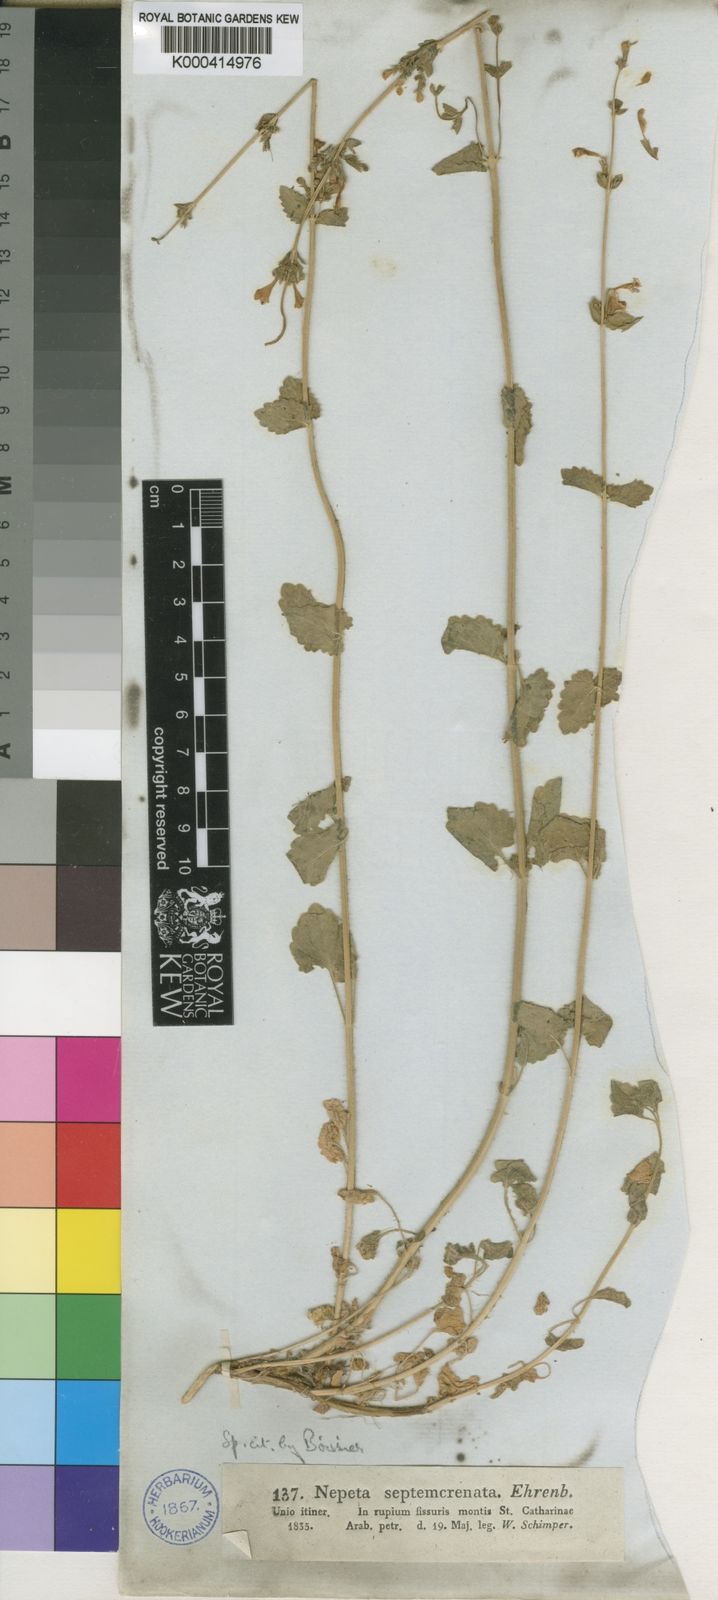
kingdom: Plantae
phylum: Tracheophyta
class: Magnoliopsida
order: Lamiales
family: Lamiaceae
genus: Nepeta
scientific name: Nepeta septemcrenata
